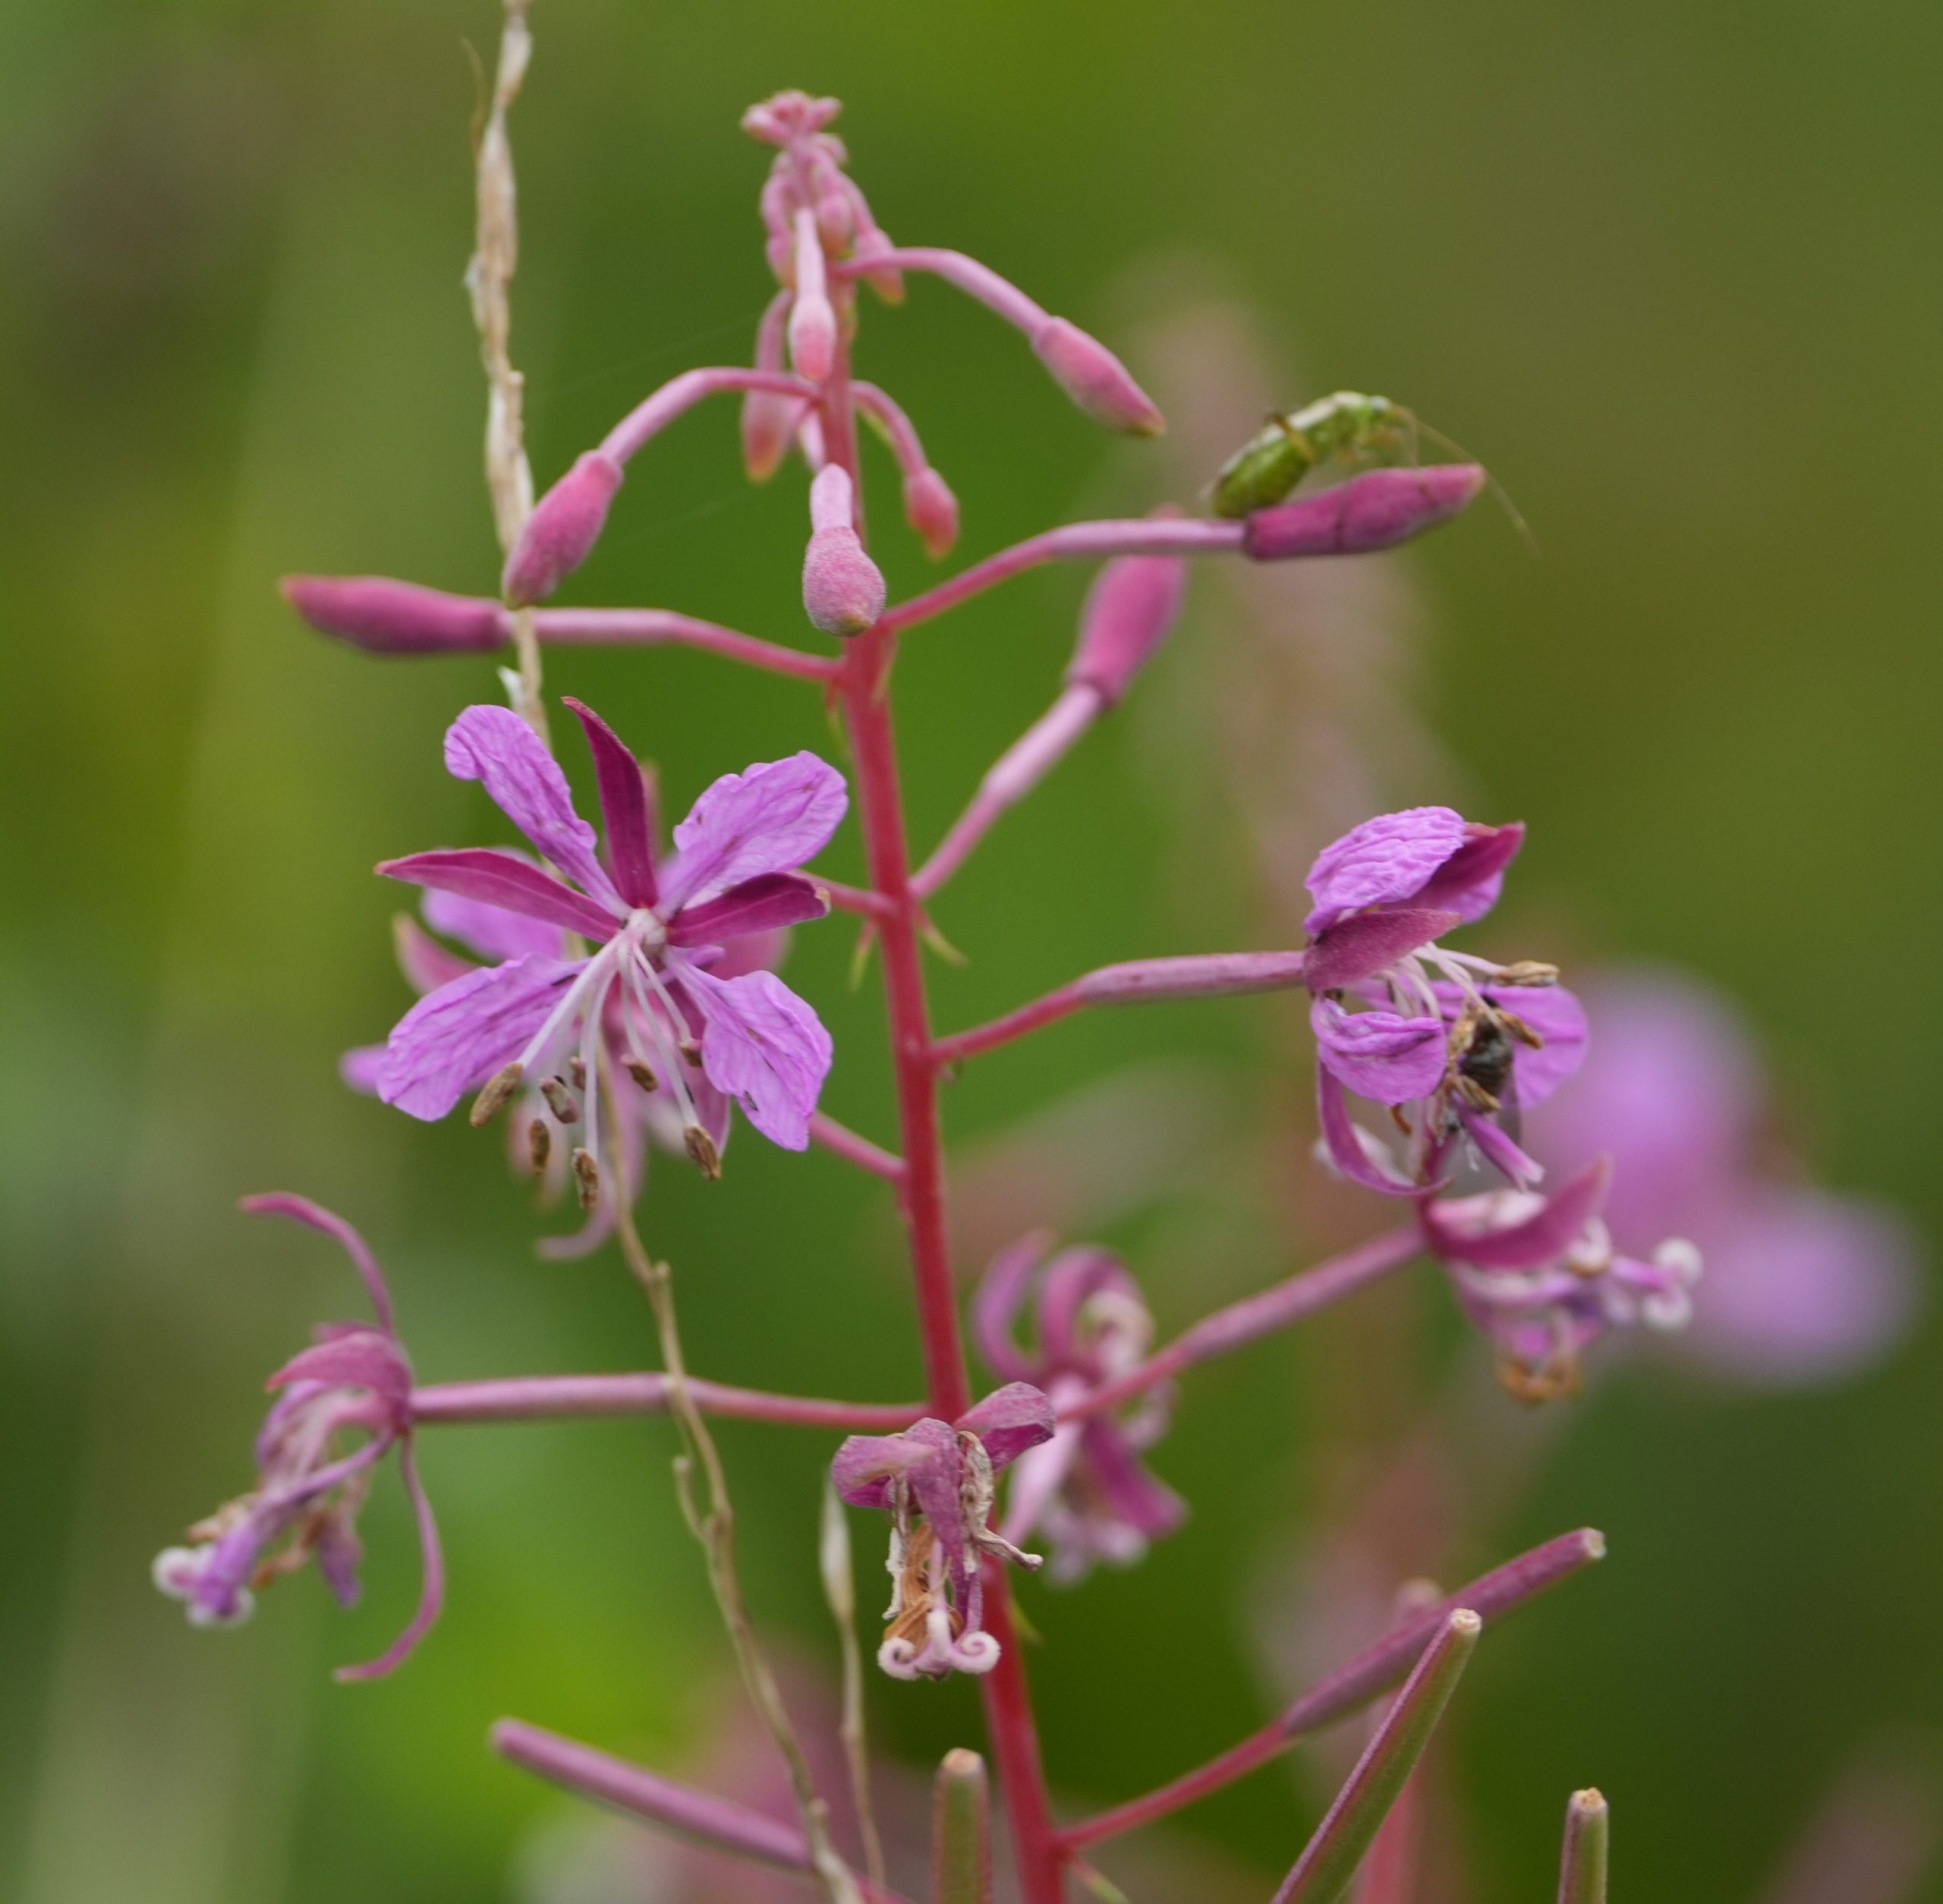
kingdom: Plantae
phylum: Tracheophyta
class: Magnoliopsida
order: Myrtales
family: Onagraceae
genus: Chamaenerion
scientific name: Chamaenerion angustifolium
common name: Gederams
